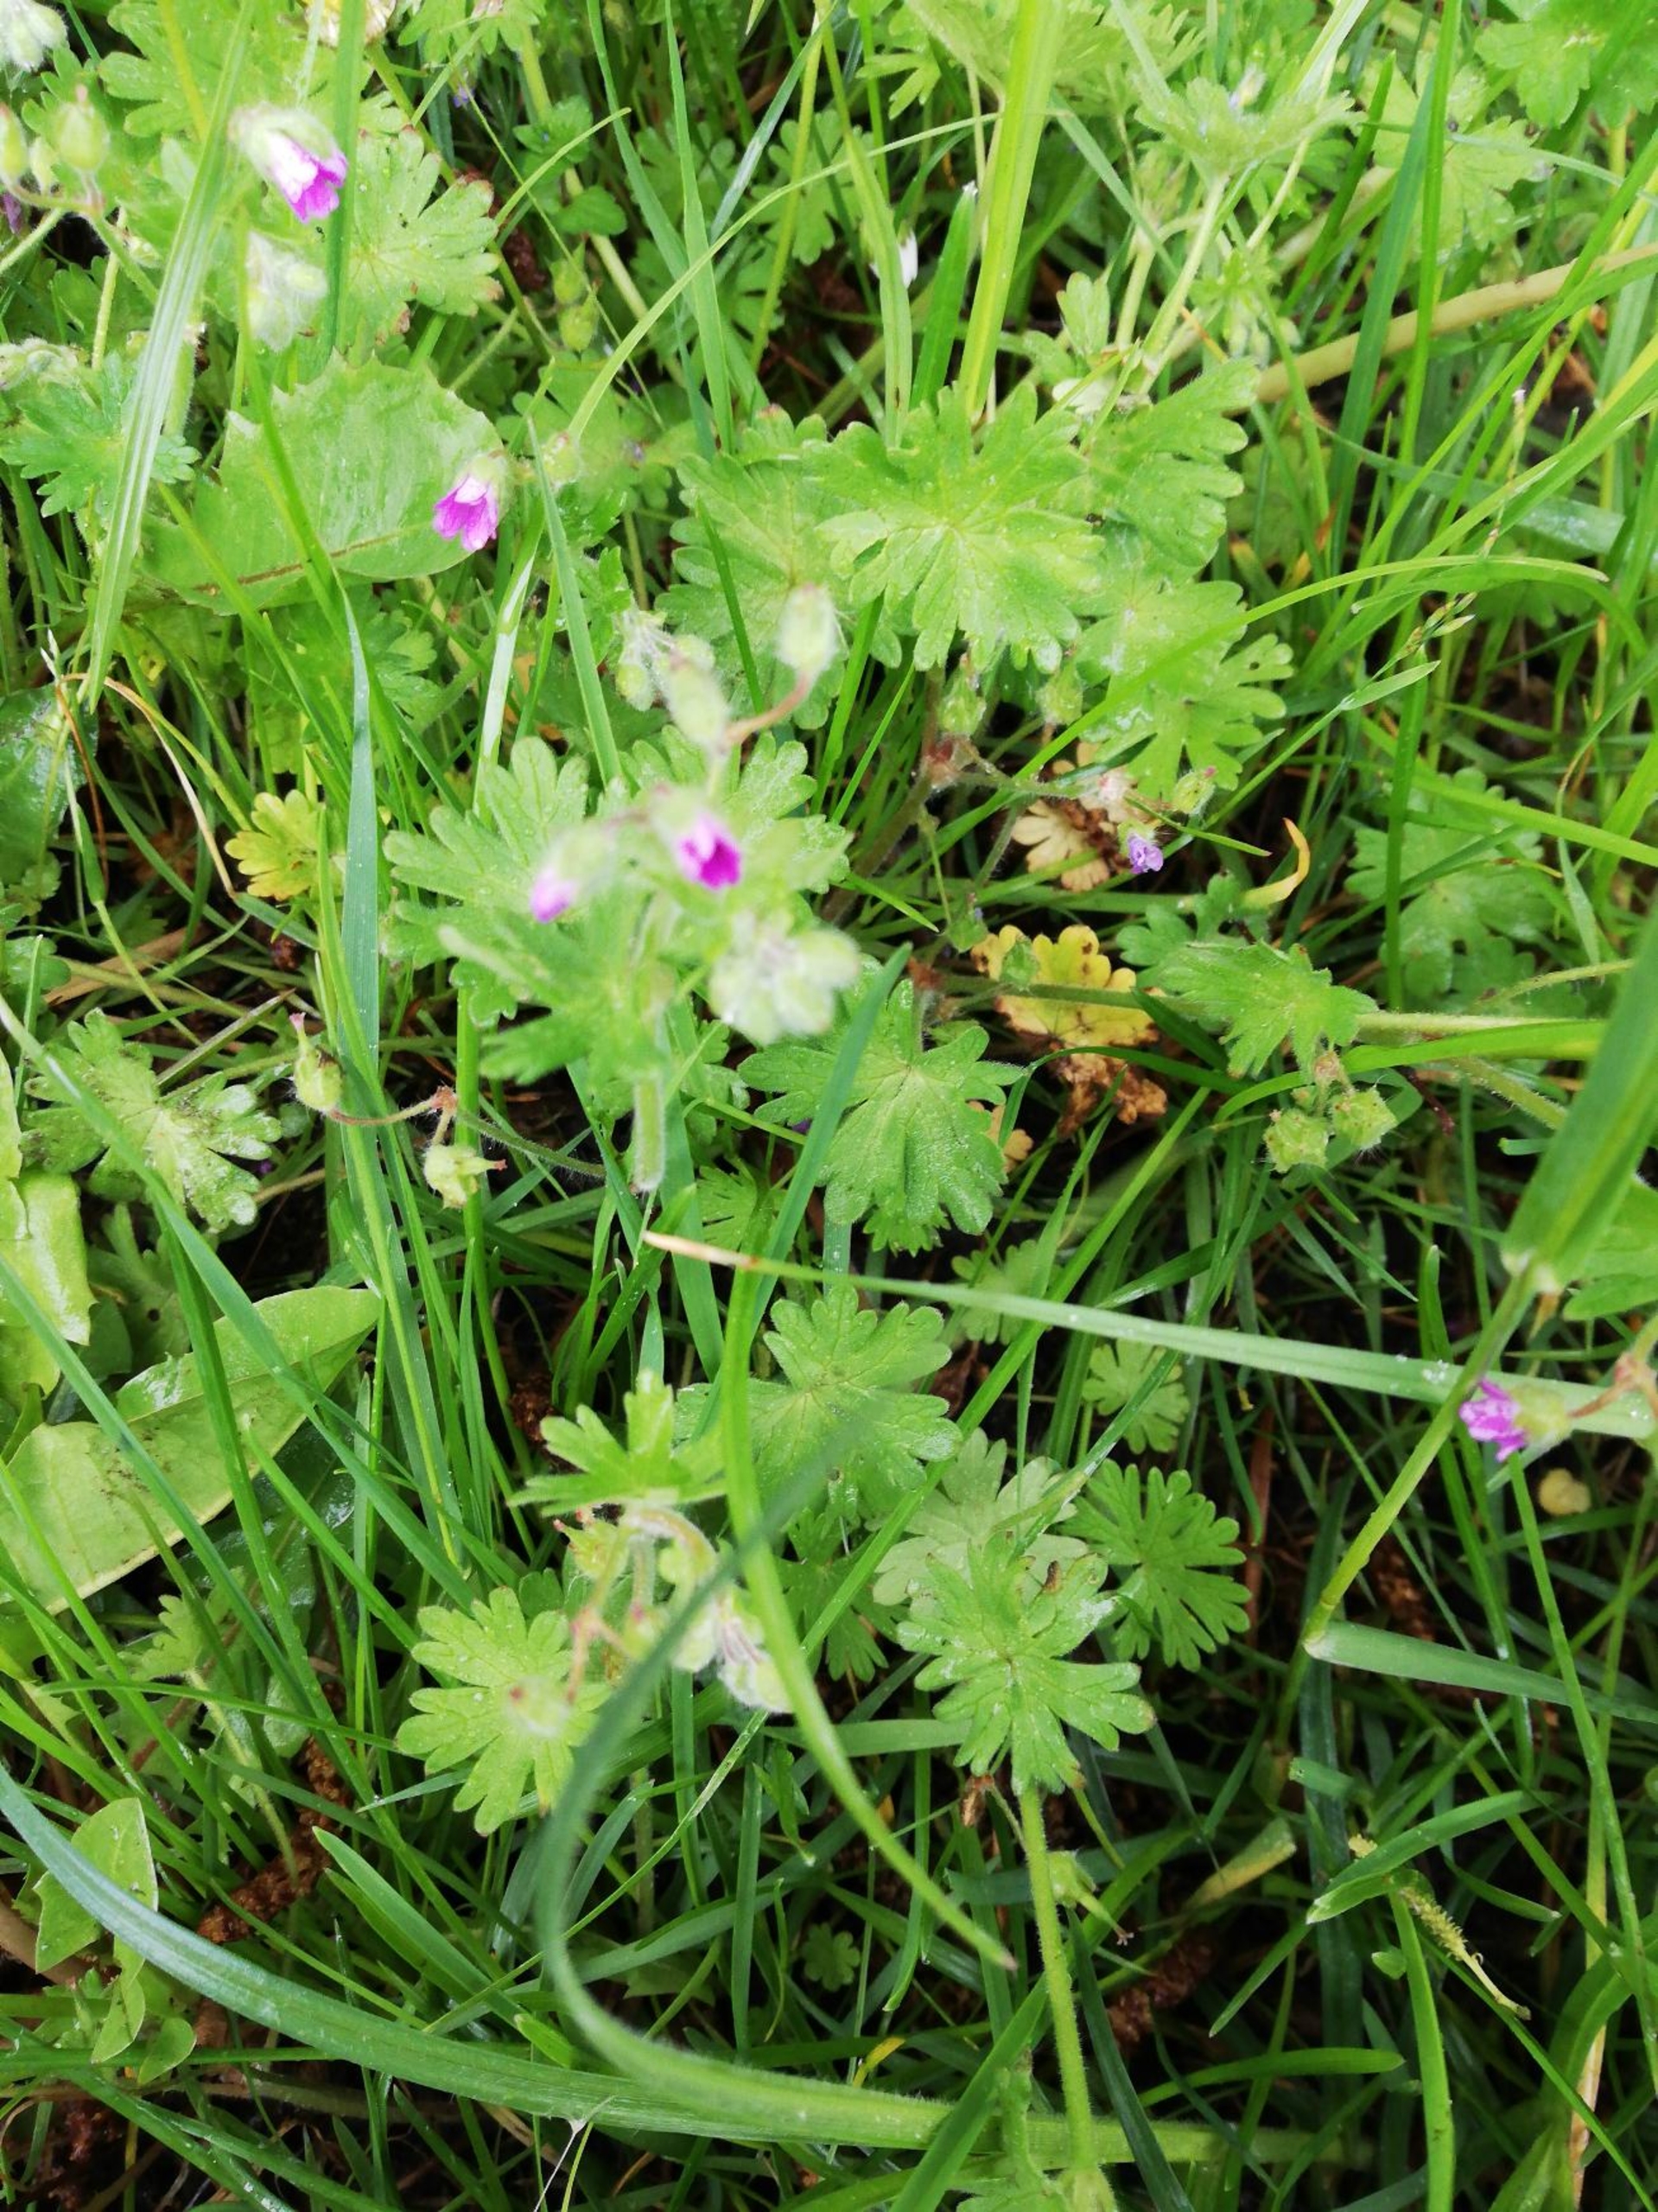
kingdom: Plantae
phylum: Tracheophyta
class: Magnoliopsida
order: Geraniales
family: Geraniaceae
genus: Geranium
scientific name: Geranium molle
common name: Blød storkenæb
